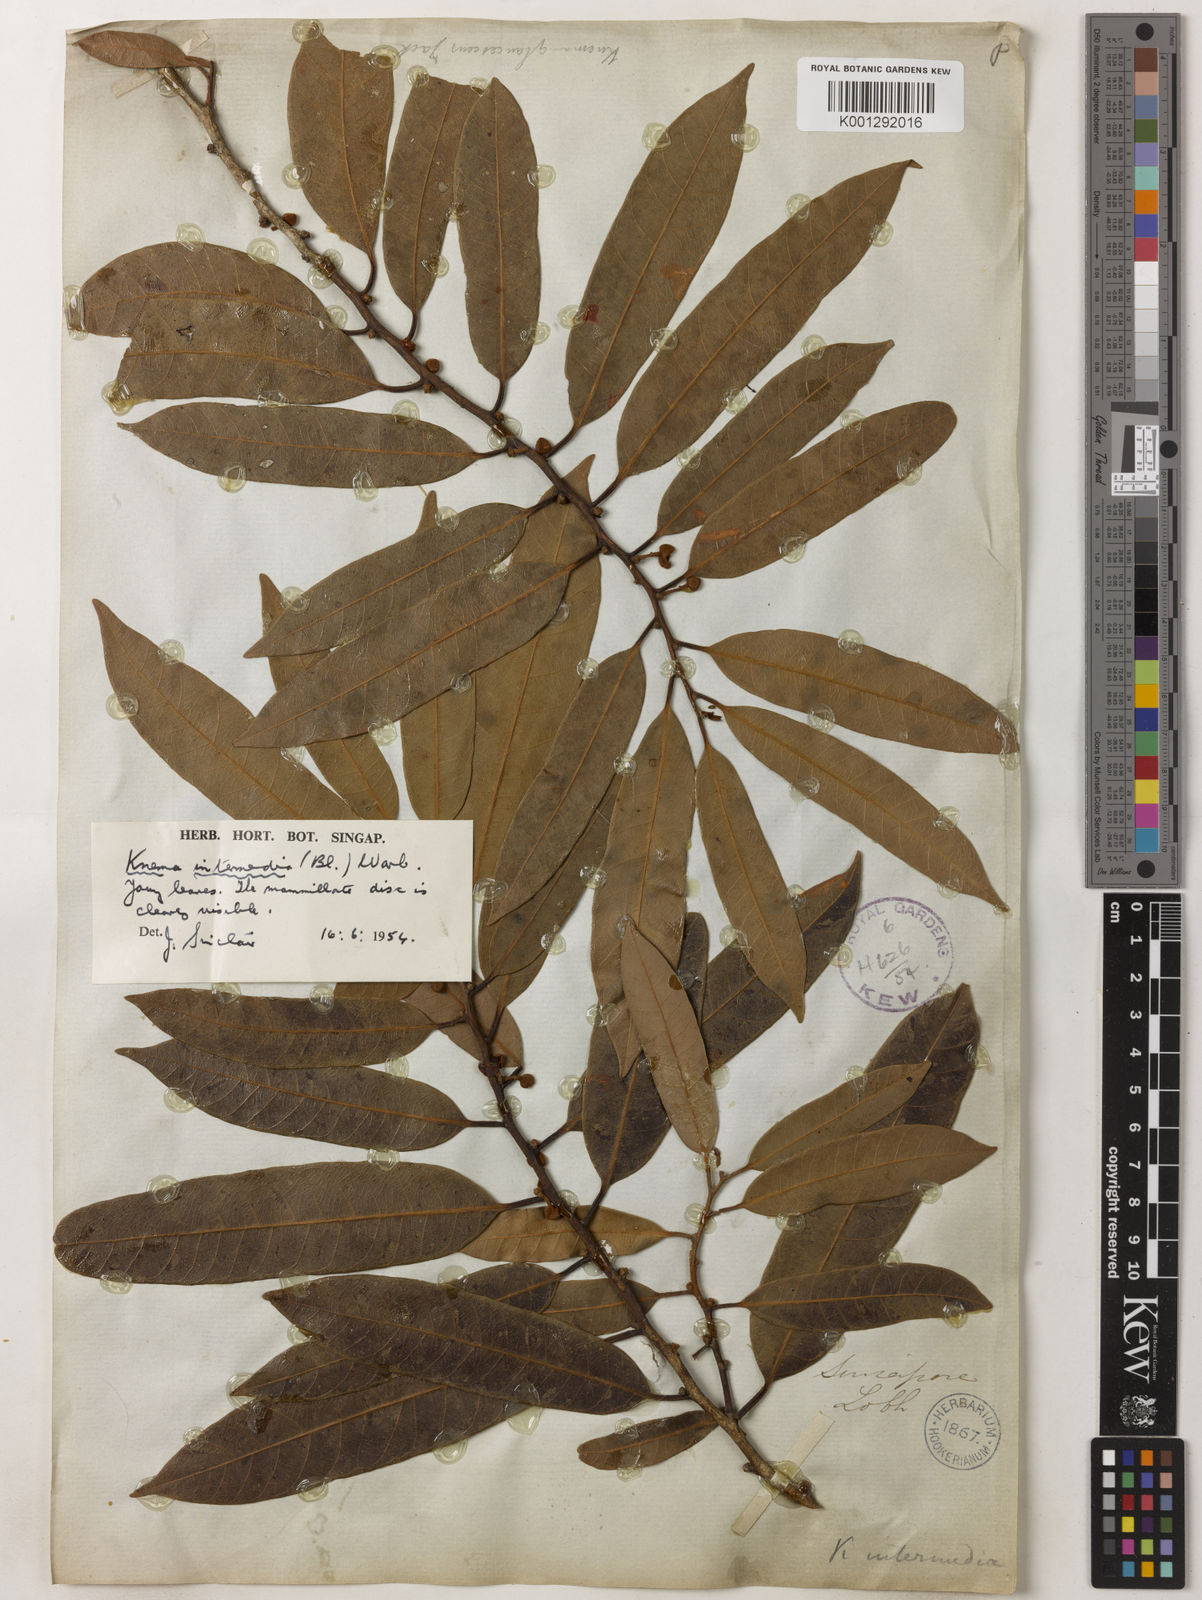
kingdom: Plantae
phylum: Tracheophyta
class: Magnoliopsida
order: Magnoliales
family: Myristicaceae
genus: Knema
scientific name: Knema intermedia
